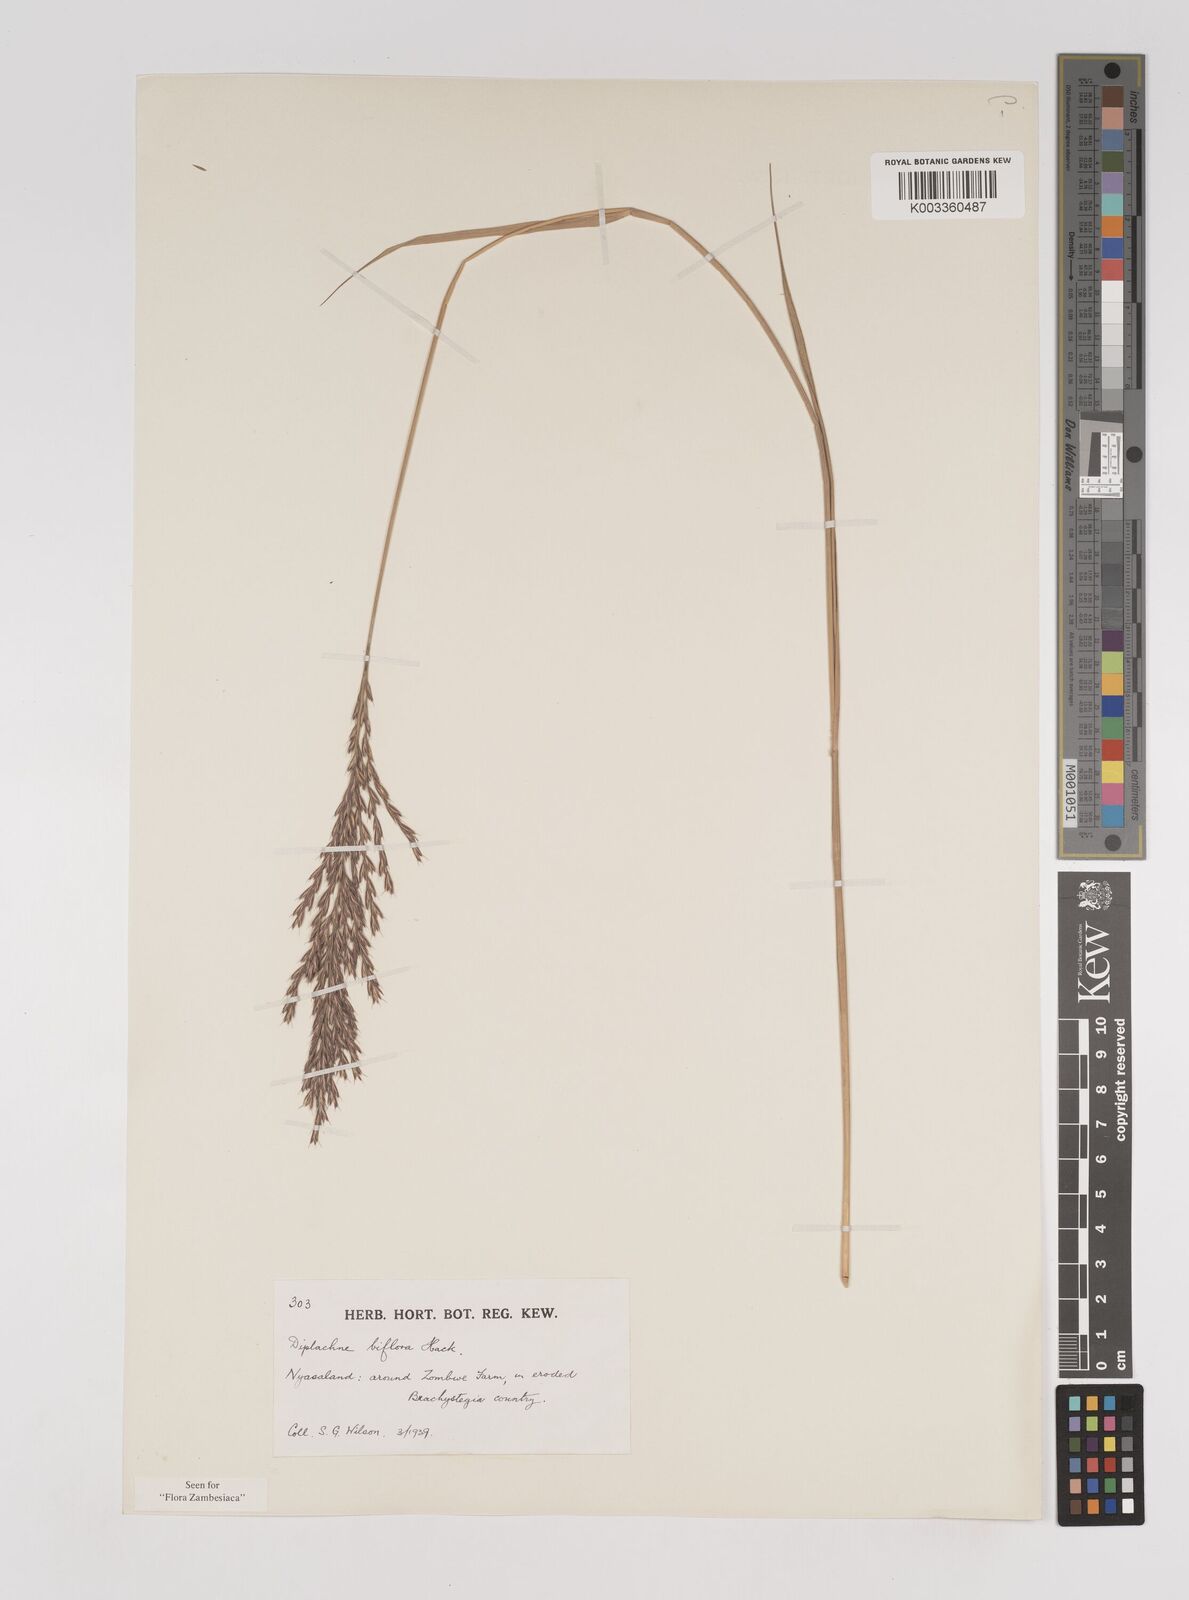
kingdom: Plantae
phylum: Tracheophyta
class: Liliopsida
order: Poales
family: Poaceae
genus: Bewsia
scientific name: Bewsia biflora
